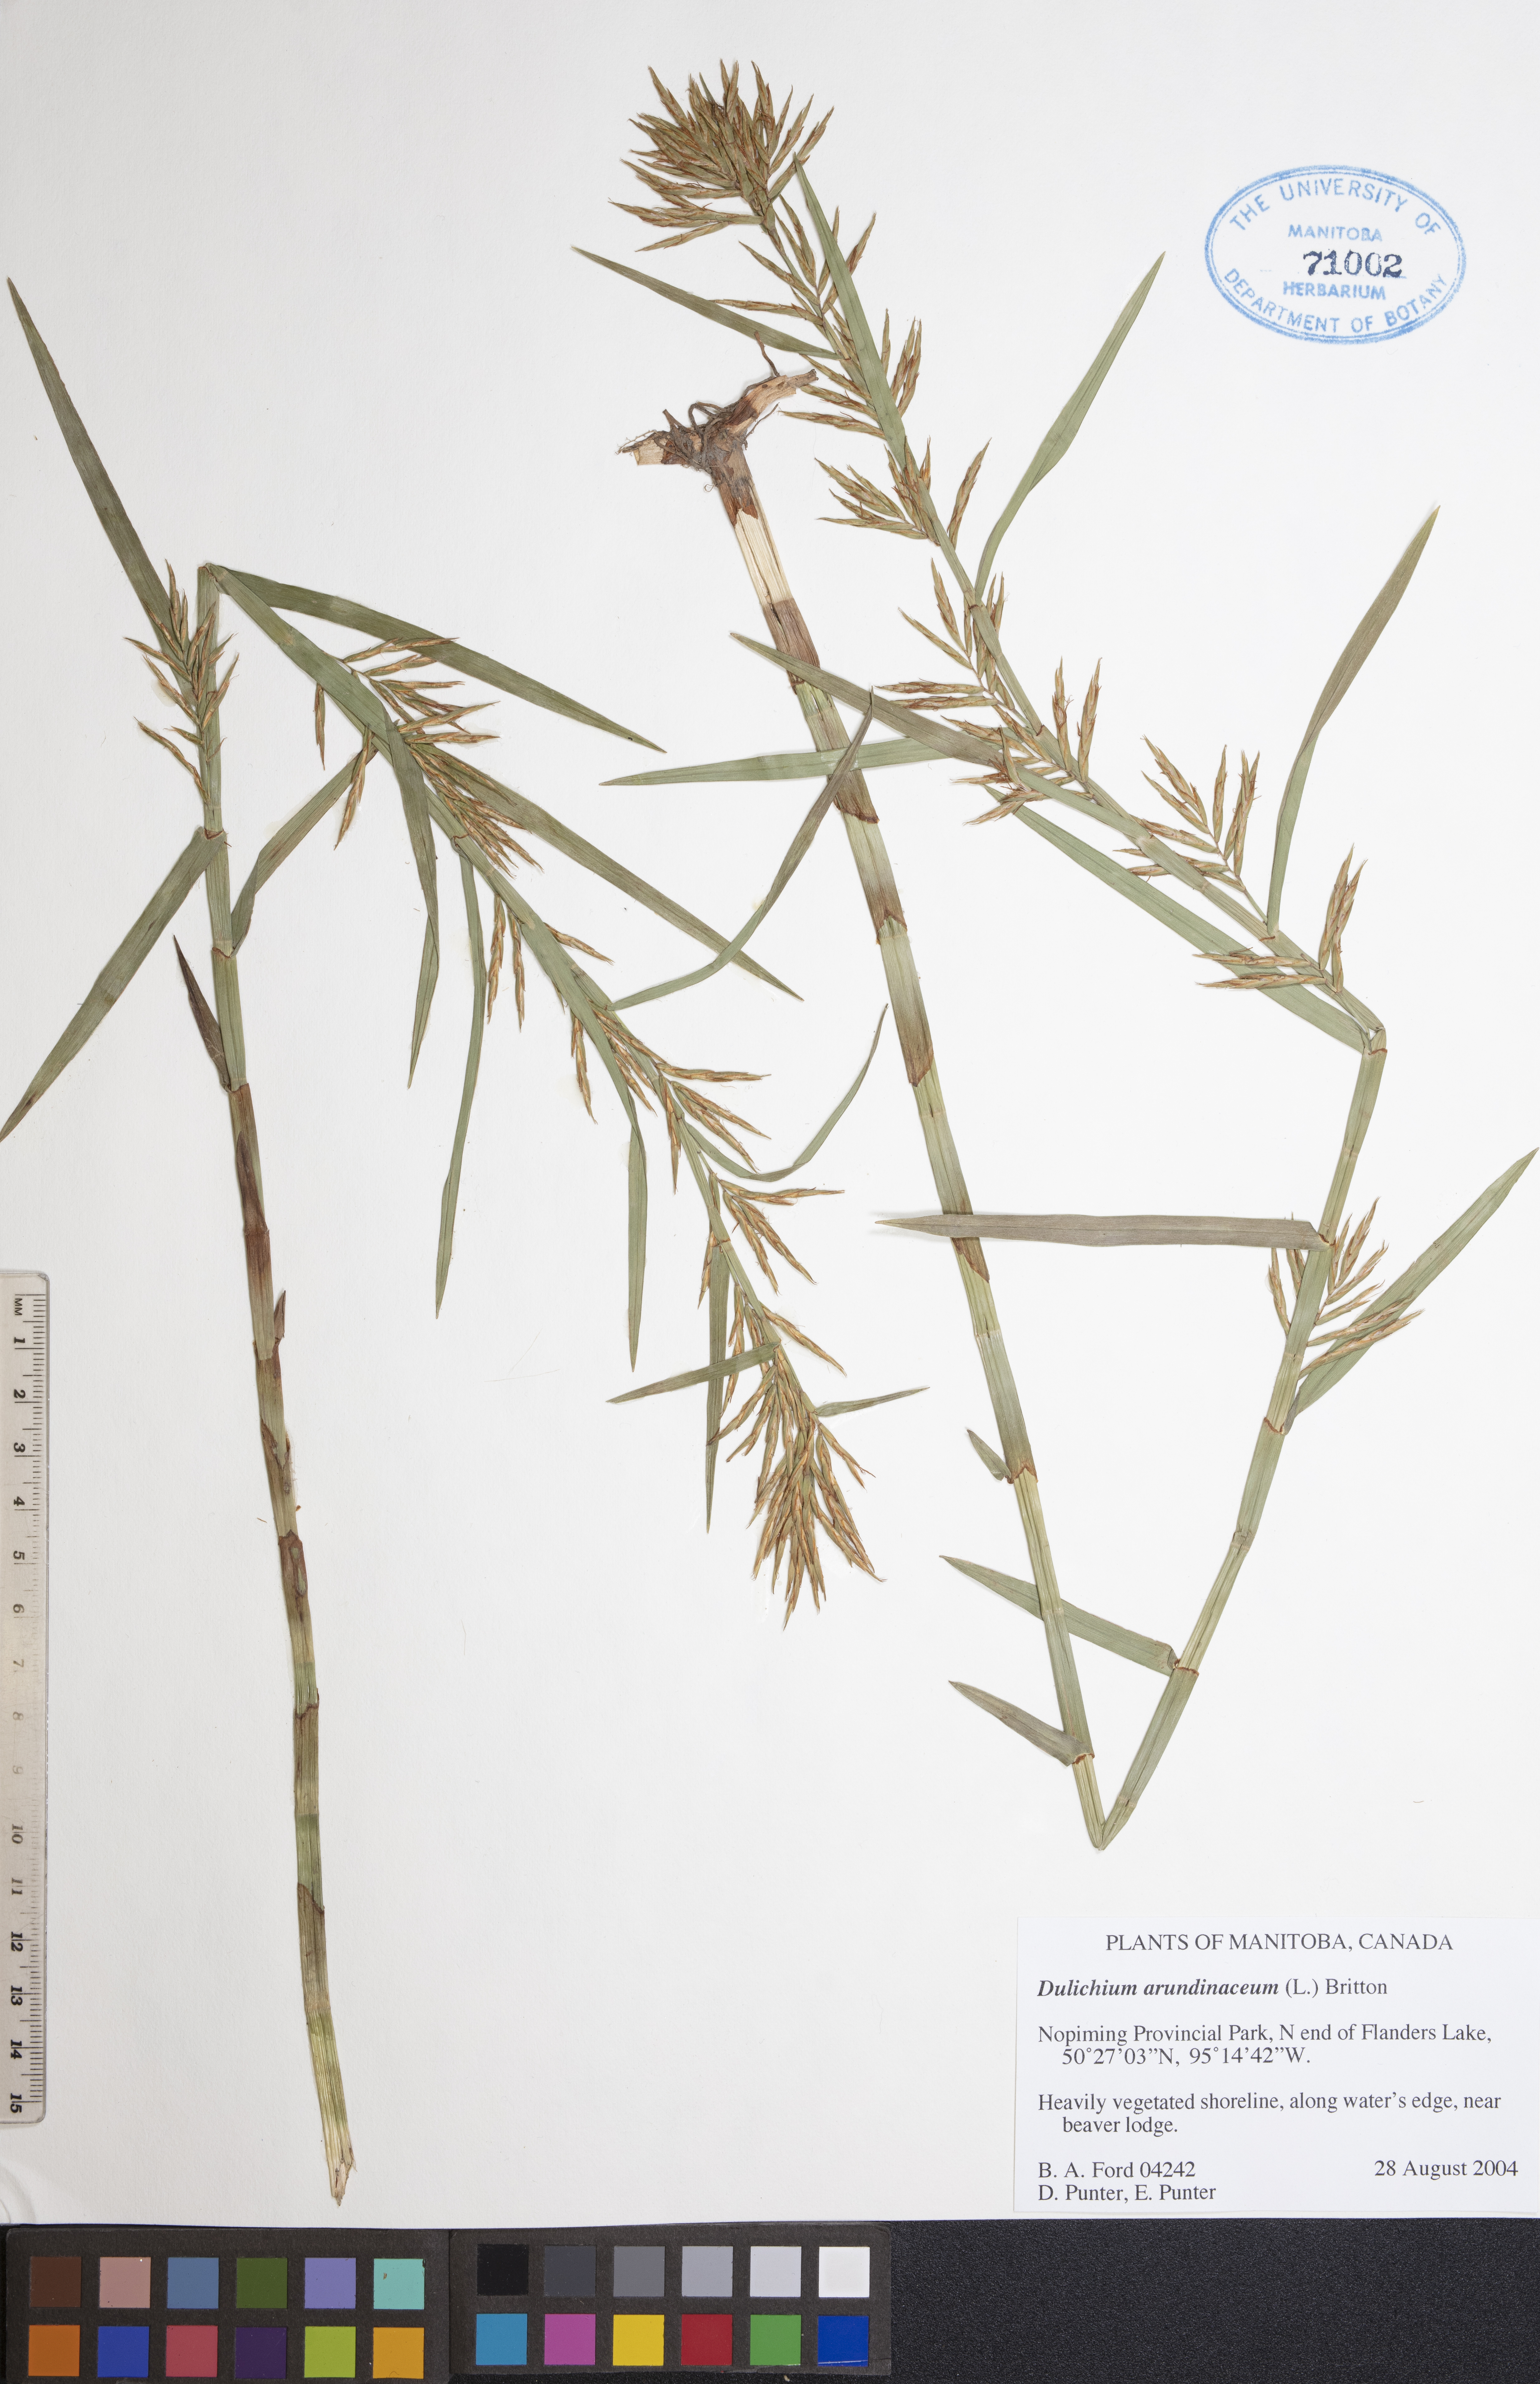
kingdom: Plantae
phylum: Tracheophyta
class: Liliopsida
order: Poales
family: Cyperaceae
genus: Dulichium
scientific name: Dulichium arundinaceum
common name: Three-way sedge
